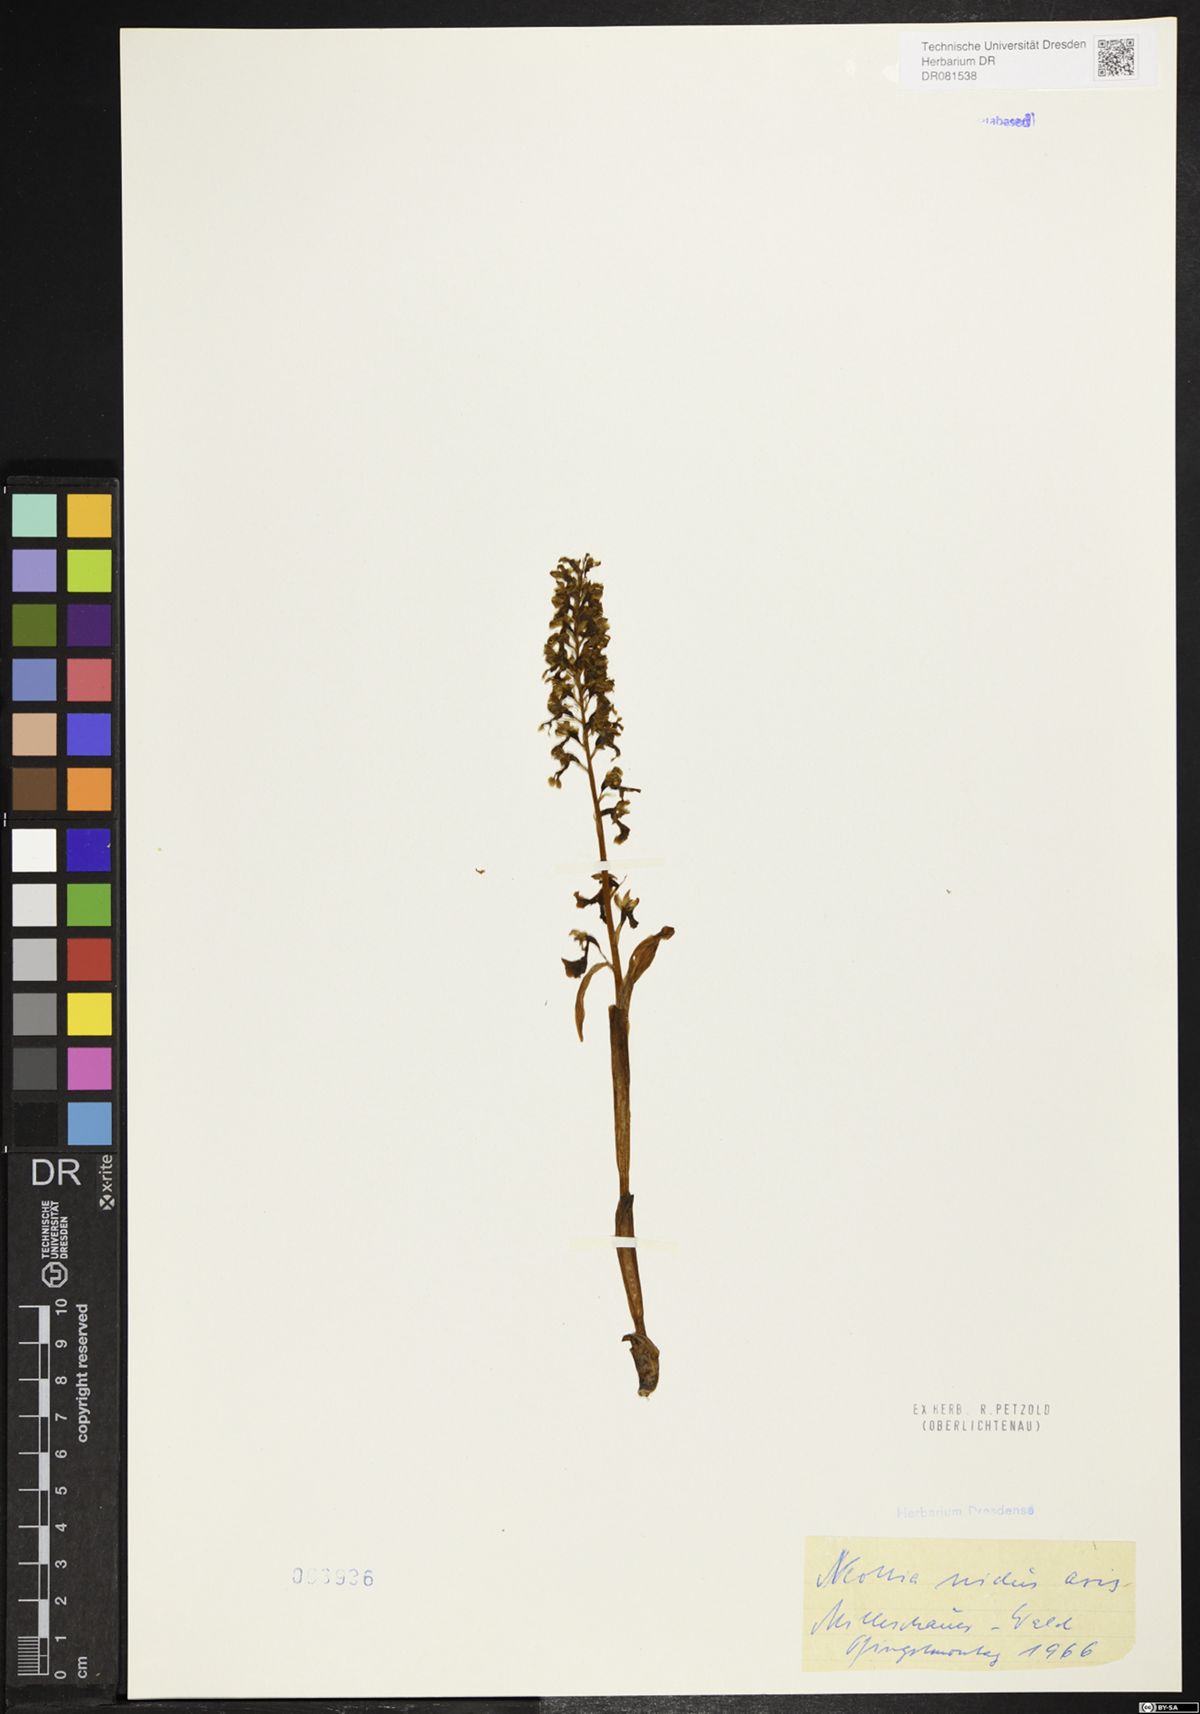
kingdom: Plantae
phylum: Tracheophyta
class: Liliopsida
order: Asparagales
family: Orchidaceae
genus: Neottia
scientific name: Neottia nidus-avis
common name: Bird's-nest orchid
